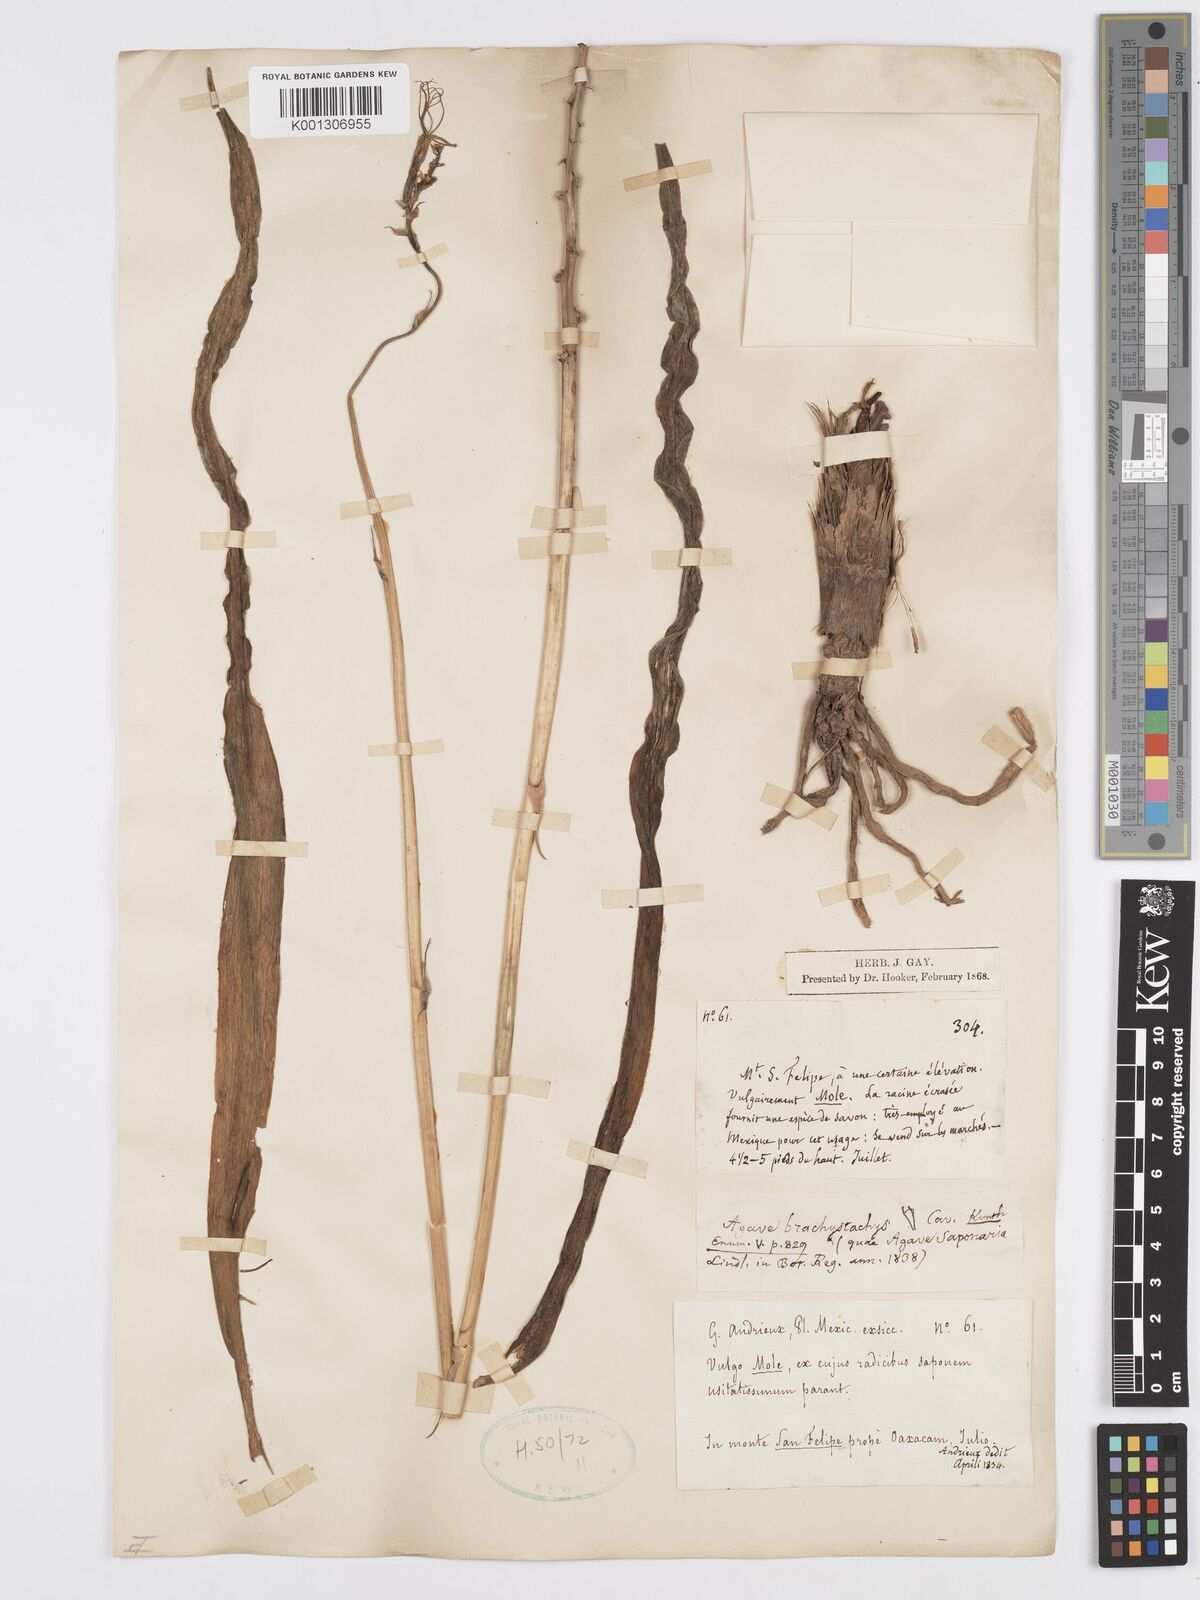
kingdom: Plantae
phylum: Tracheophyta
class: Liliopsida
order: Asparagales
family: Asparagaceae
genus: Agave
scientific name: Agave scabra
